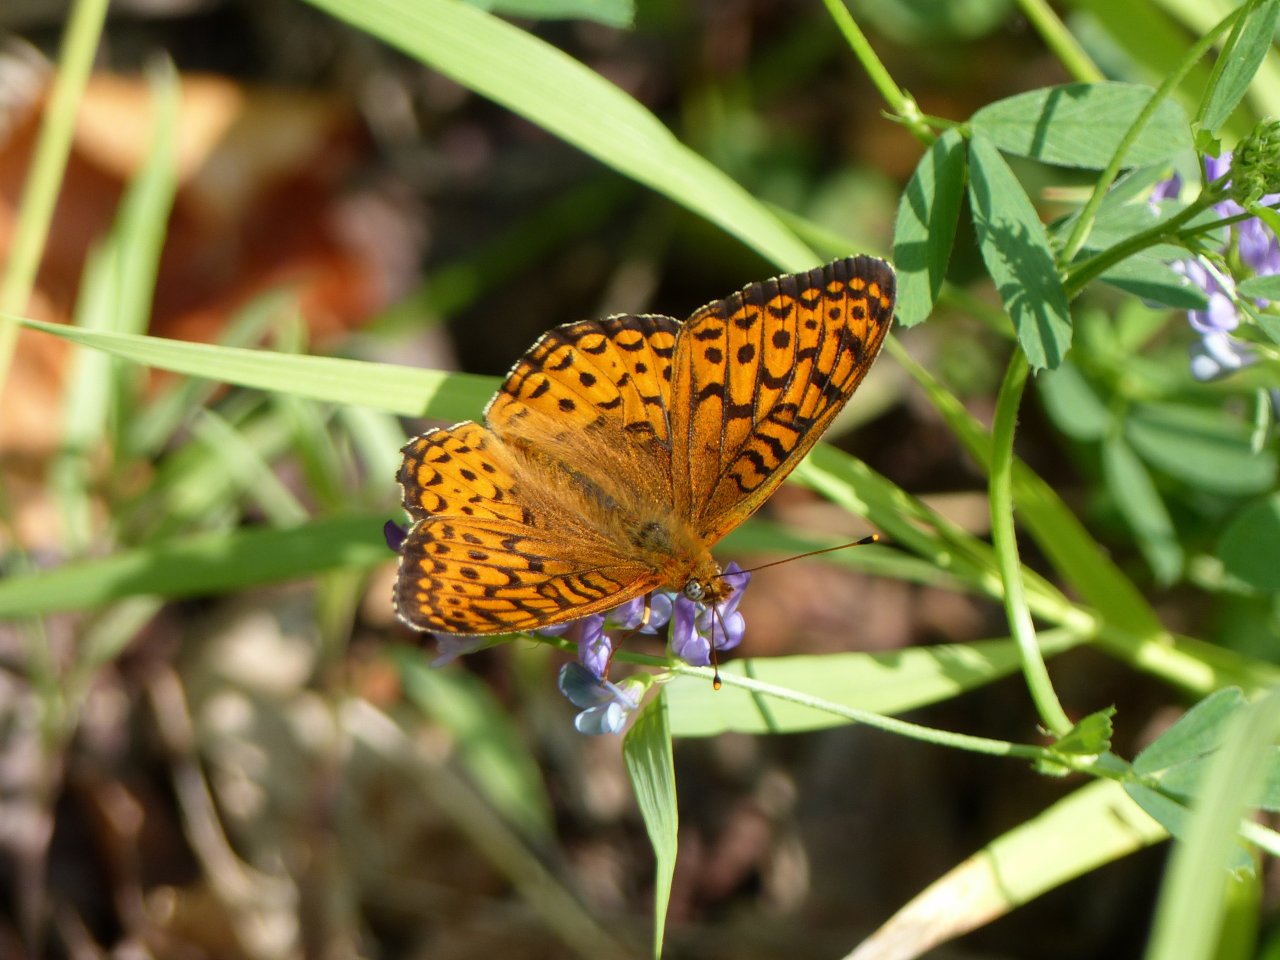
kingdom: Animalia
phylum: Arthropoda
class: Insecta
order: Lepidoptera
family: Nymphalidae
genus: Speyeria
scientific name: Speyeria atlantis
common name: Atlantis Fritillary
